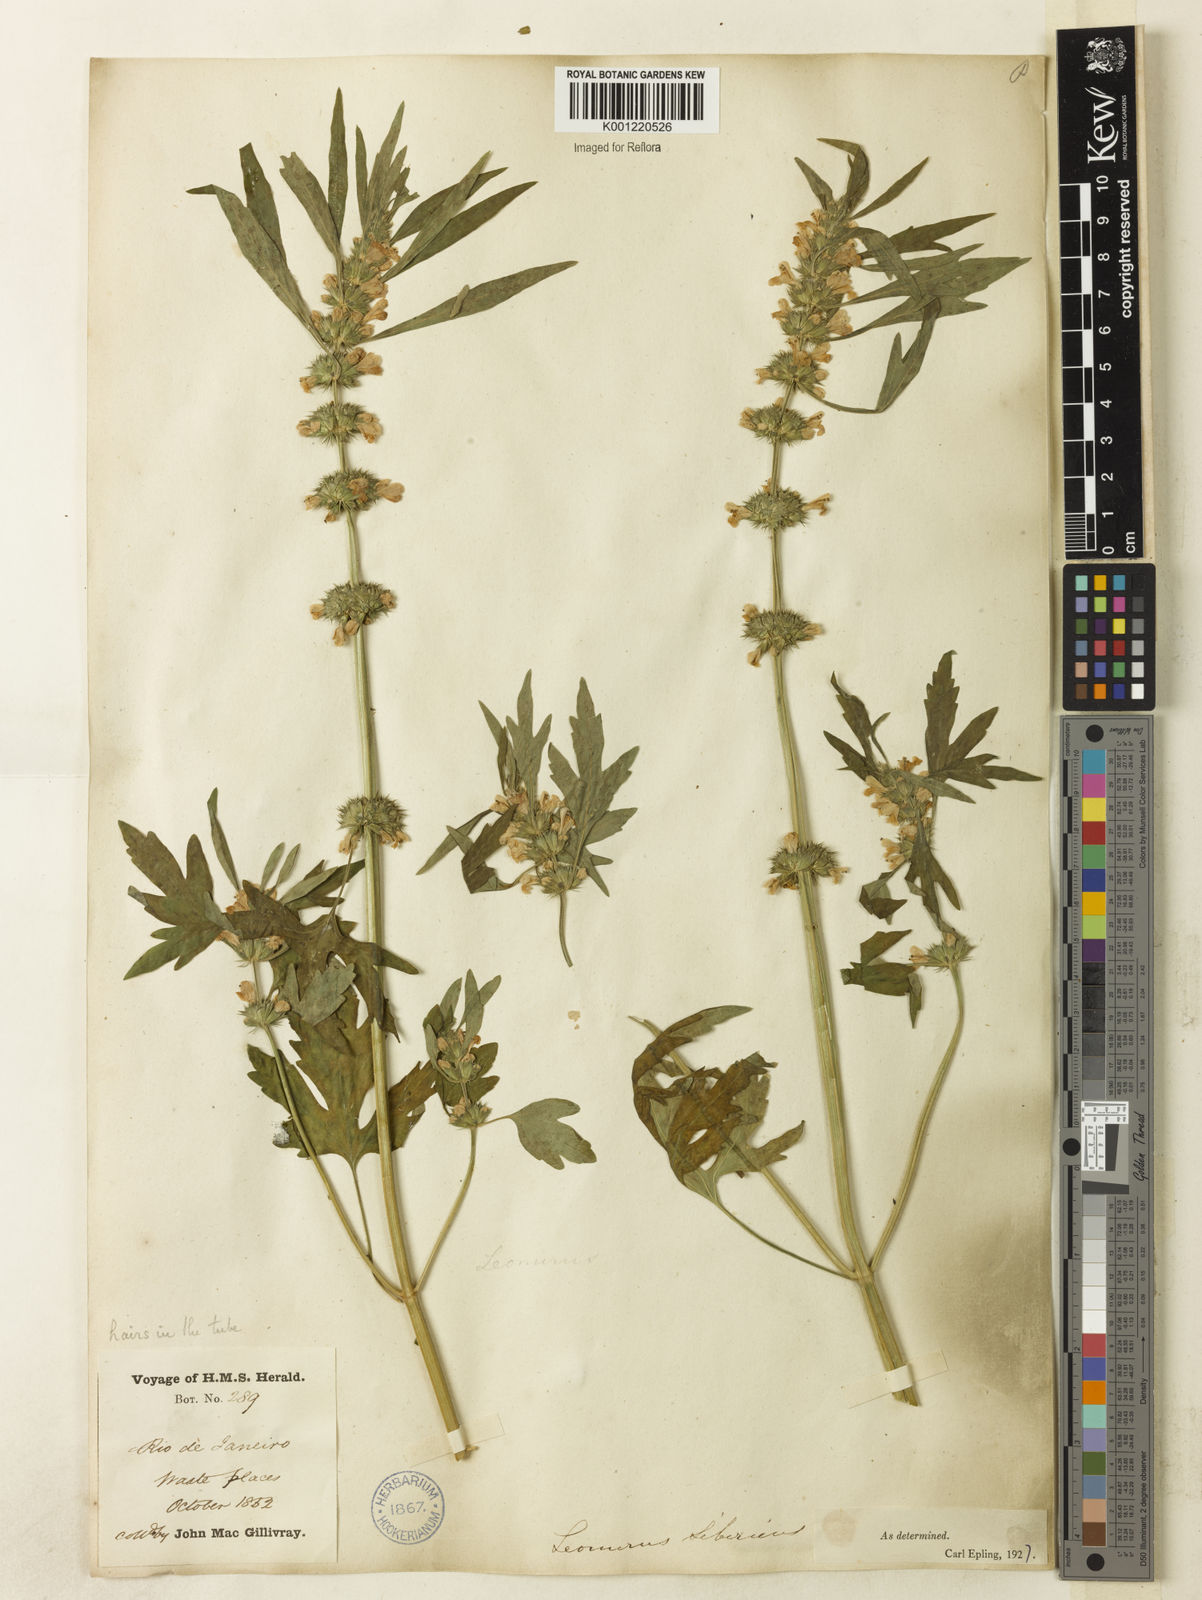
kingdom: Plantae
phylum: Tracheophyta
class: Magnoliopsida
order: Lamiales
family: Lamiaceae
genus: Leonurus
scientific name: Leonurus japonicus
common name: Honeyweed
